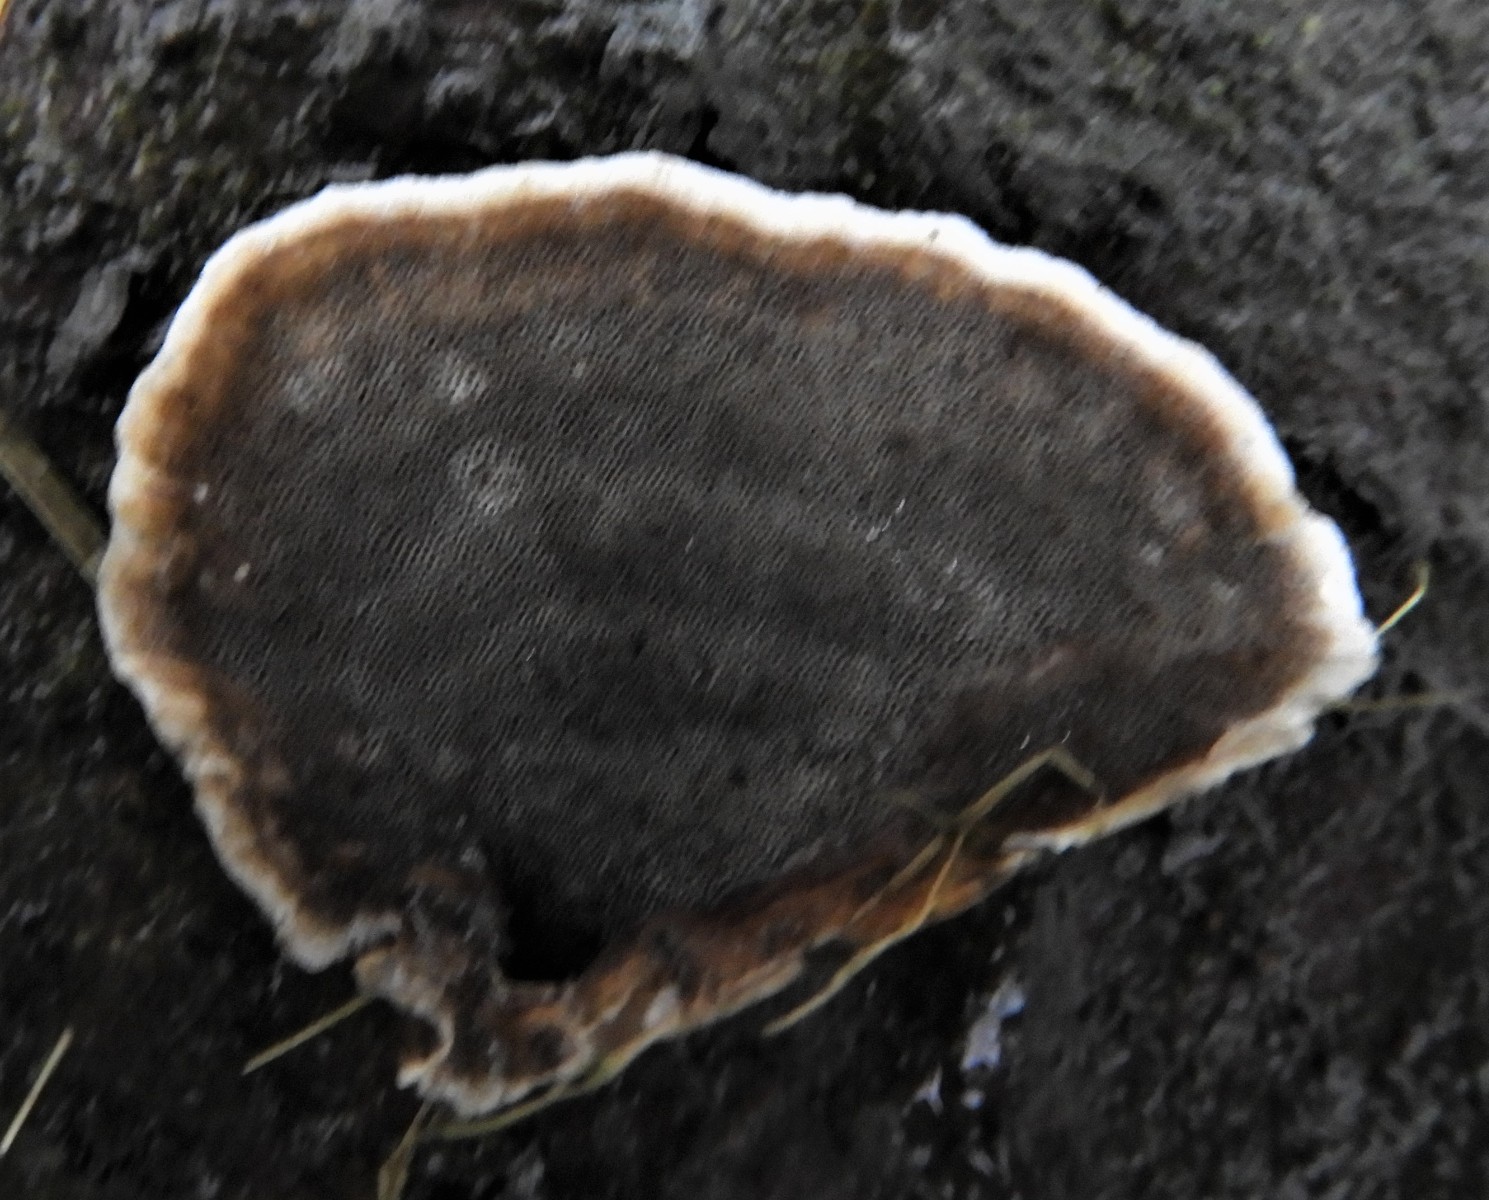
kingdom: Fungi
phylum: Basidiomycota
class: Agaricomycetes
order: Polyporales
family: Phanerochaetaceae
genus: Bjerkandera
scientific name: Bjerkandera adusta
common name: sveden sodporesvamp
